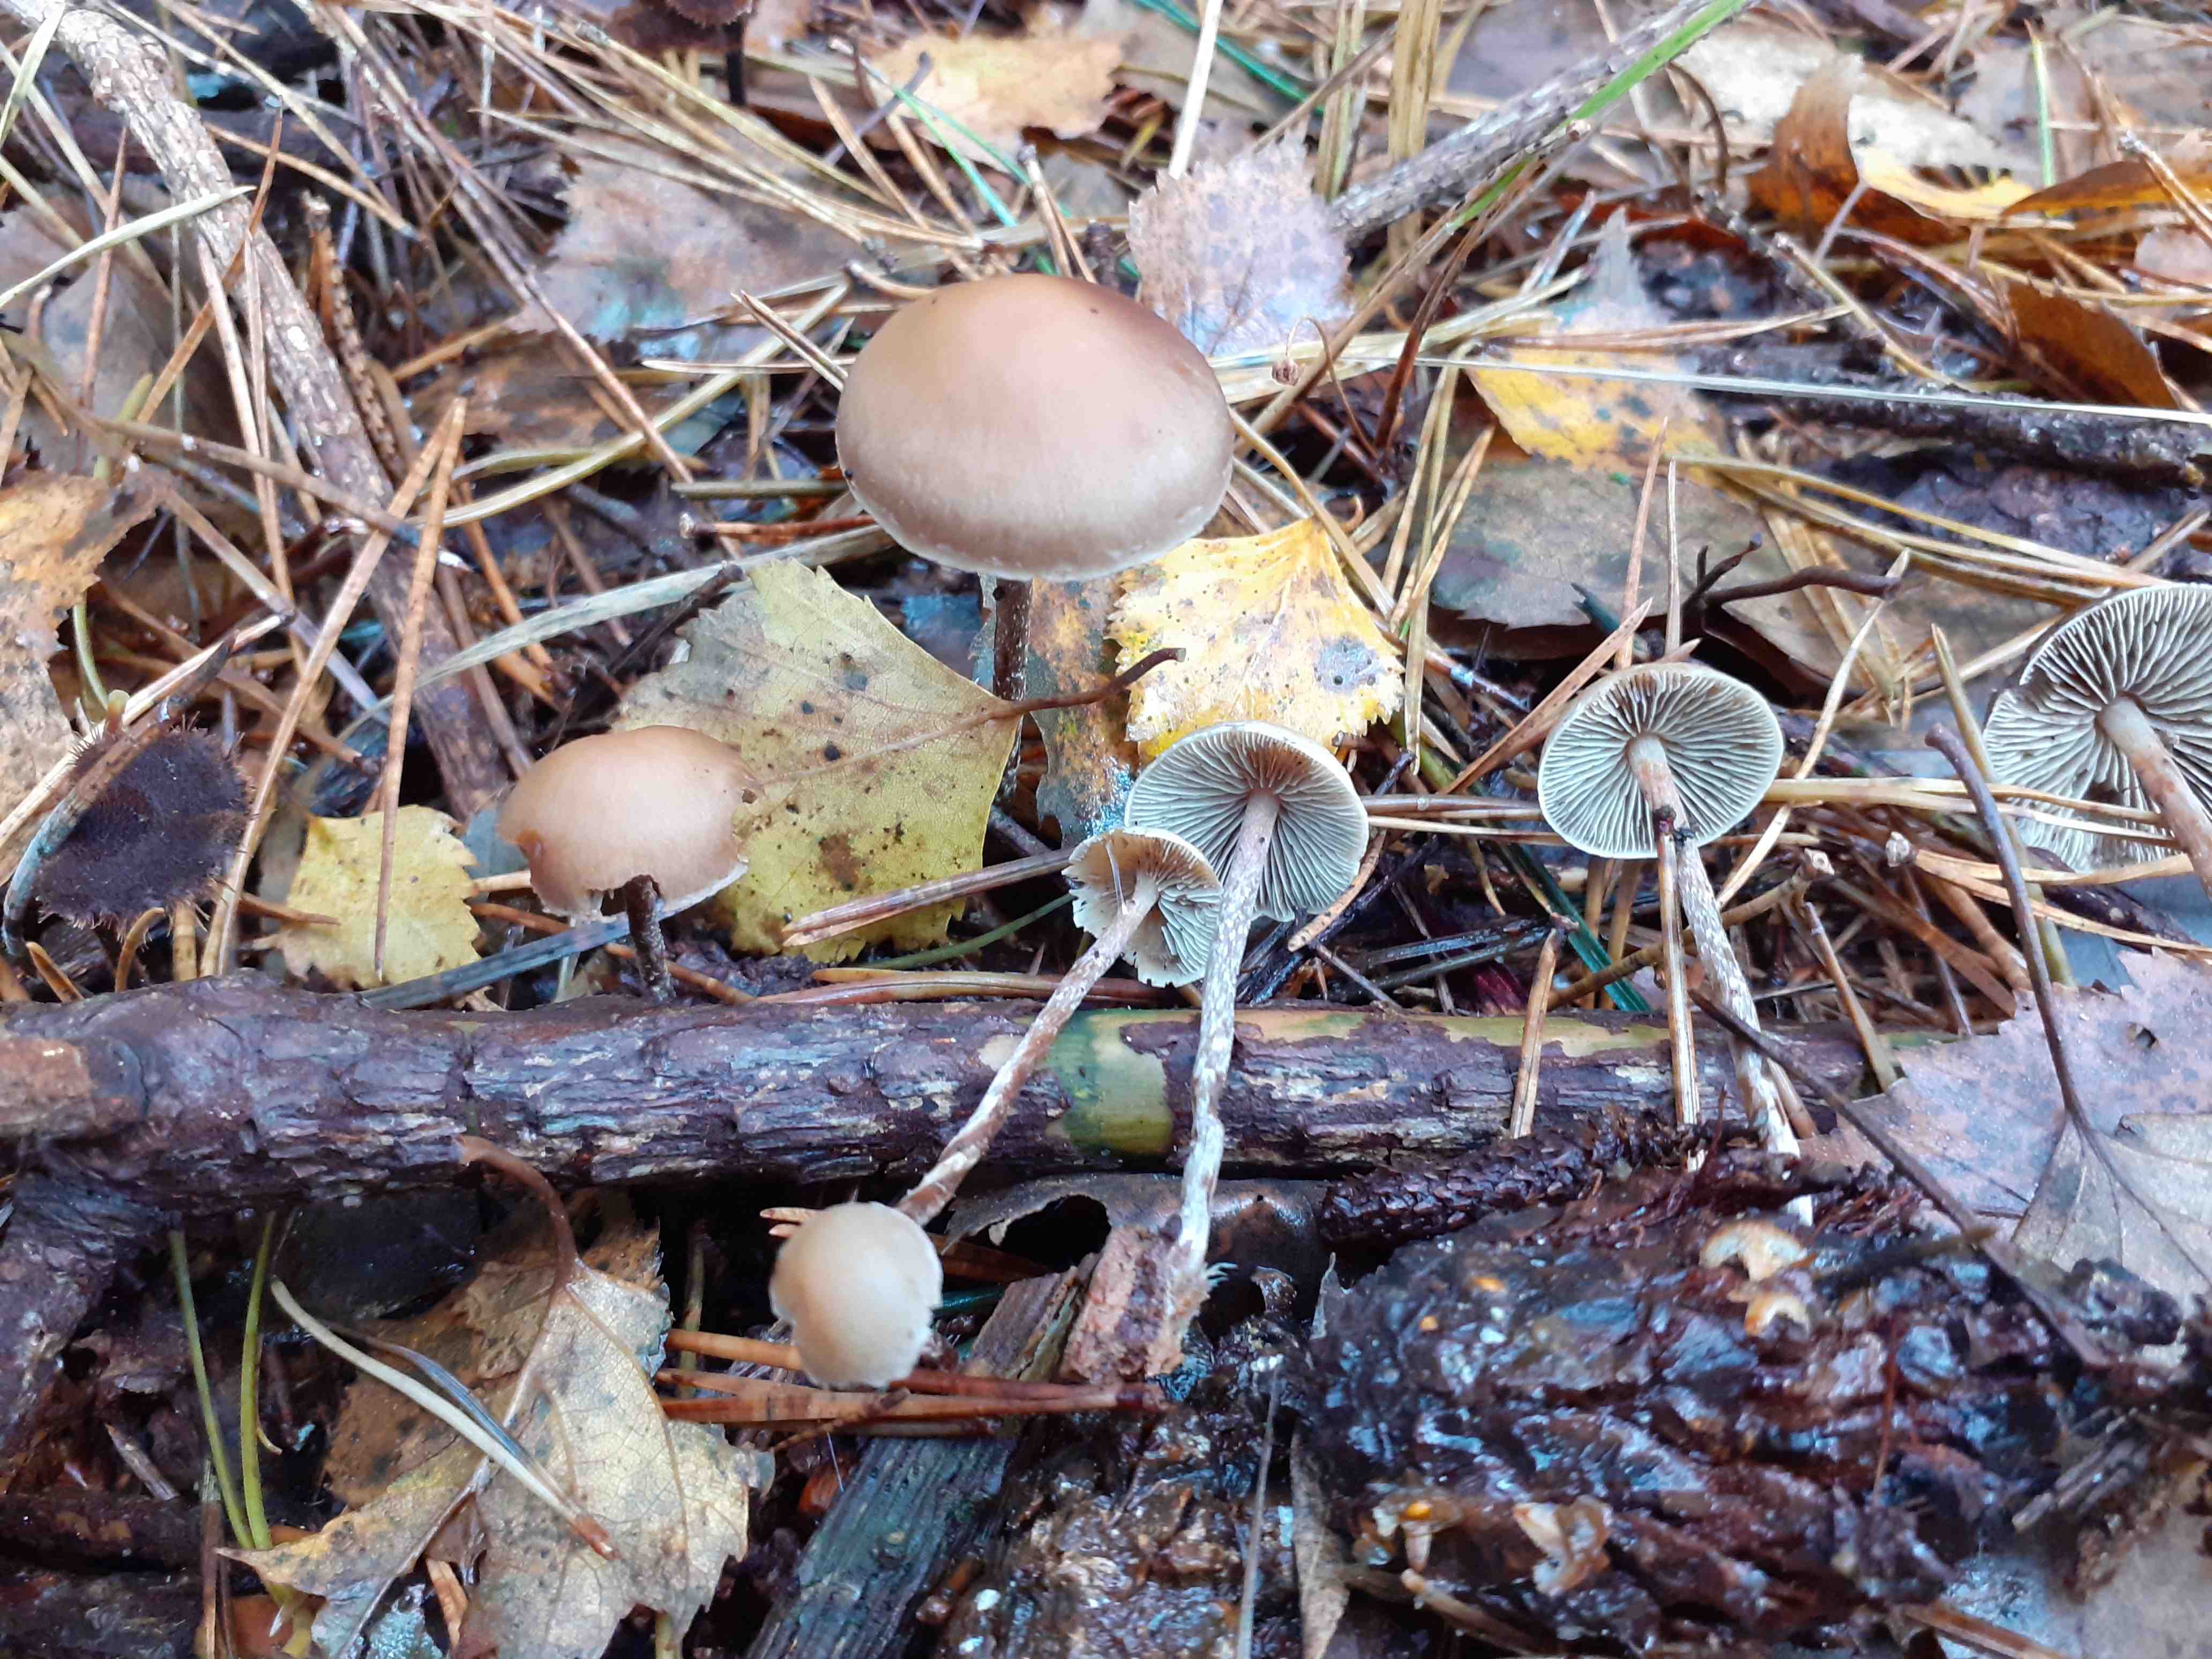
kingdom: Fungi
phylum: Basidiomycota
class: Agaricomycetes
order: Agaricales
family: Strophariaceae
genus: Hypholoma
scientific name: Hypholoma marginatum
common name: enlig svovlhat
